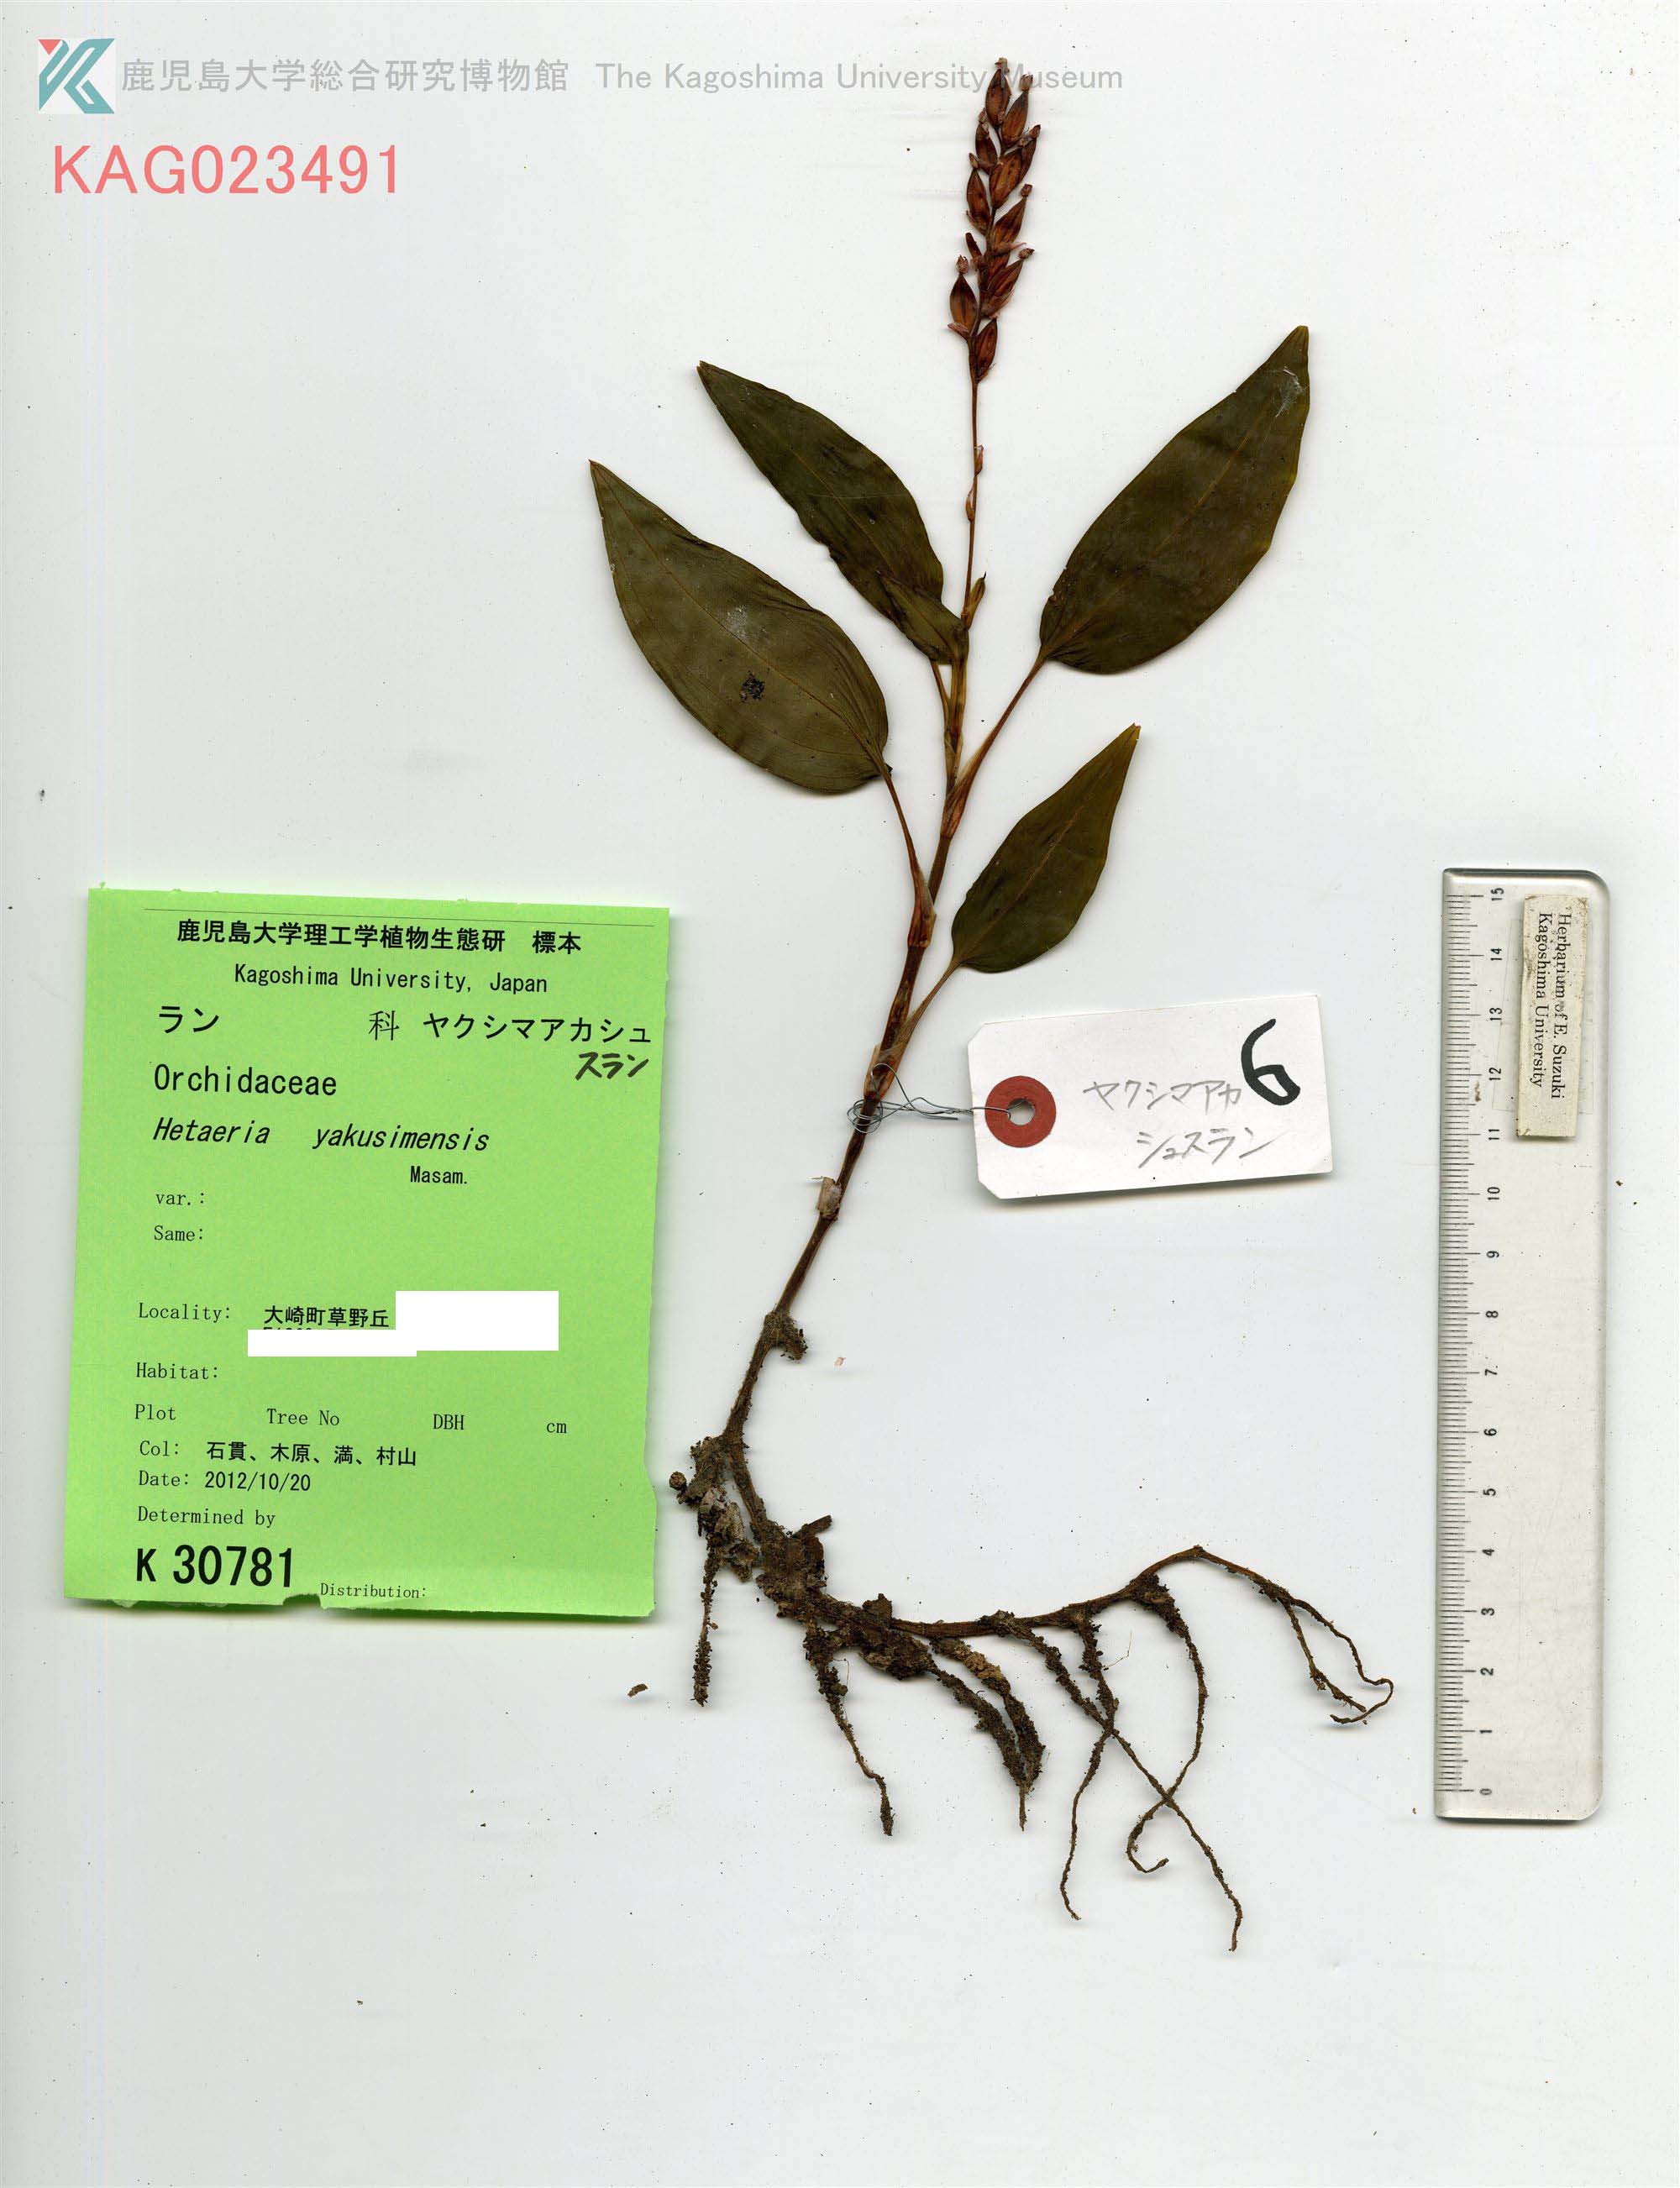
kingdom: Plantae
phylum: Tracheophyta
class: Liliopsida
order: Asparagales
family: Orchidaceae
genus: Hetaeria
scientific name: Hetaeria yakusimensis
